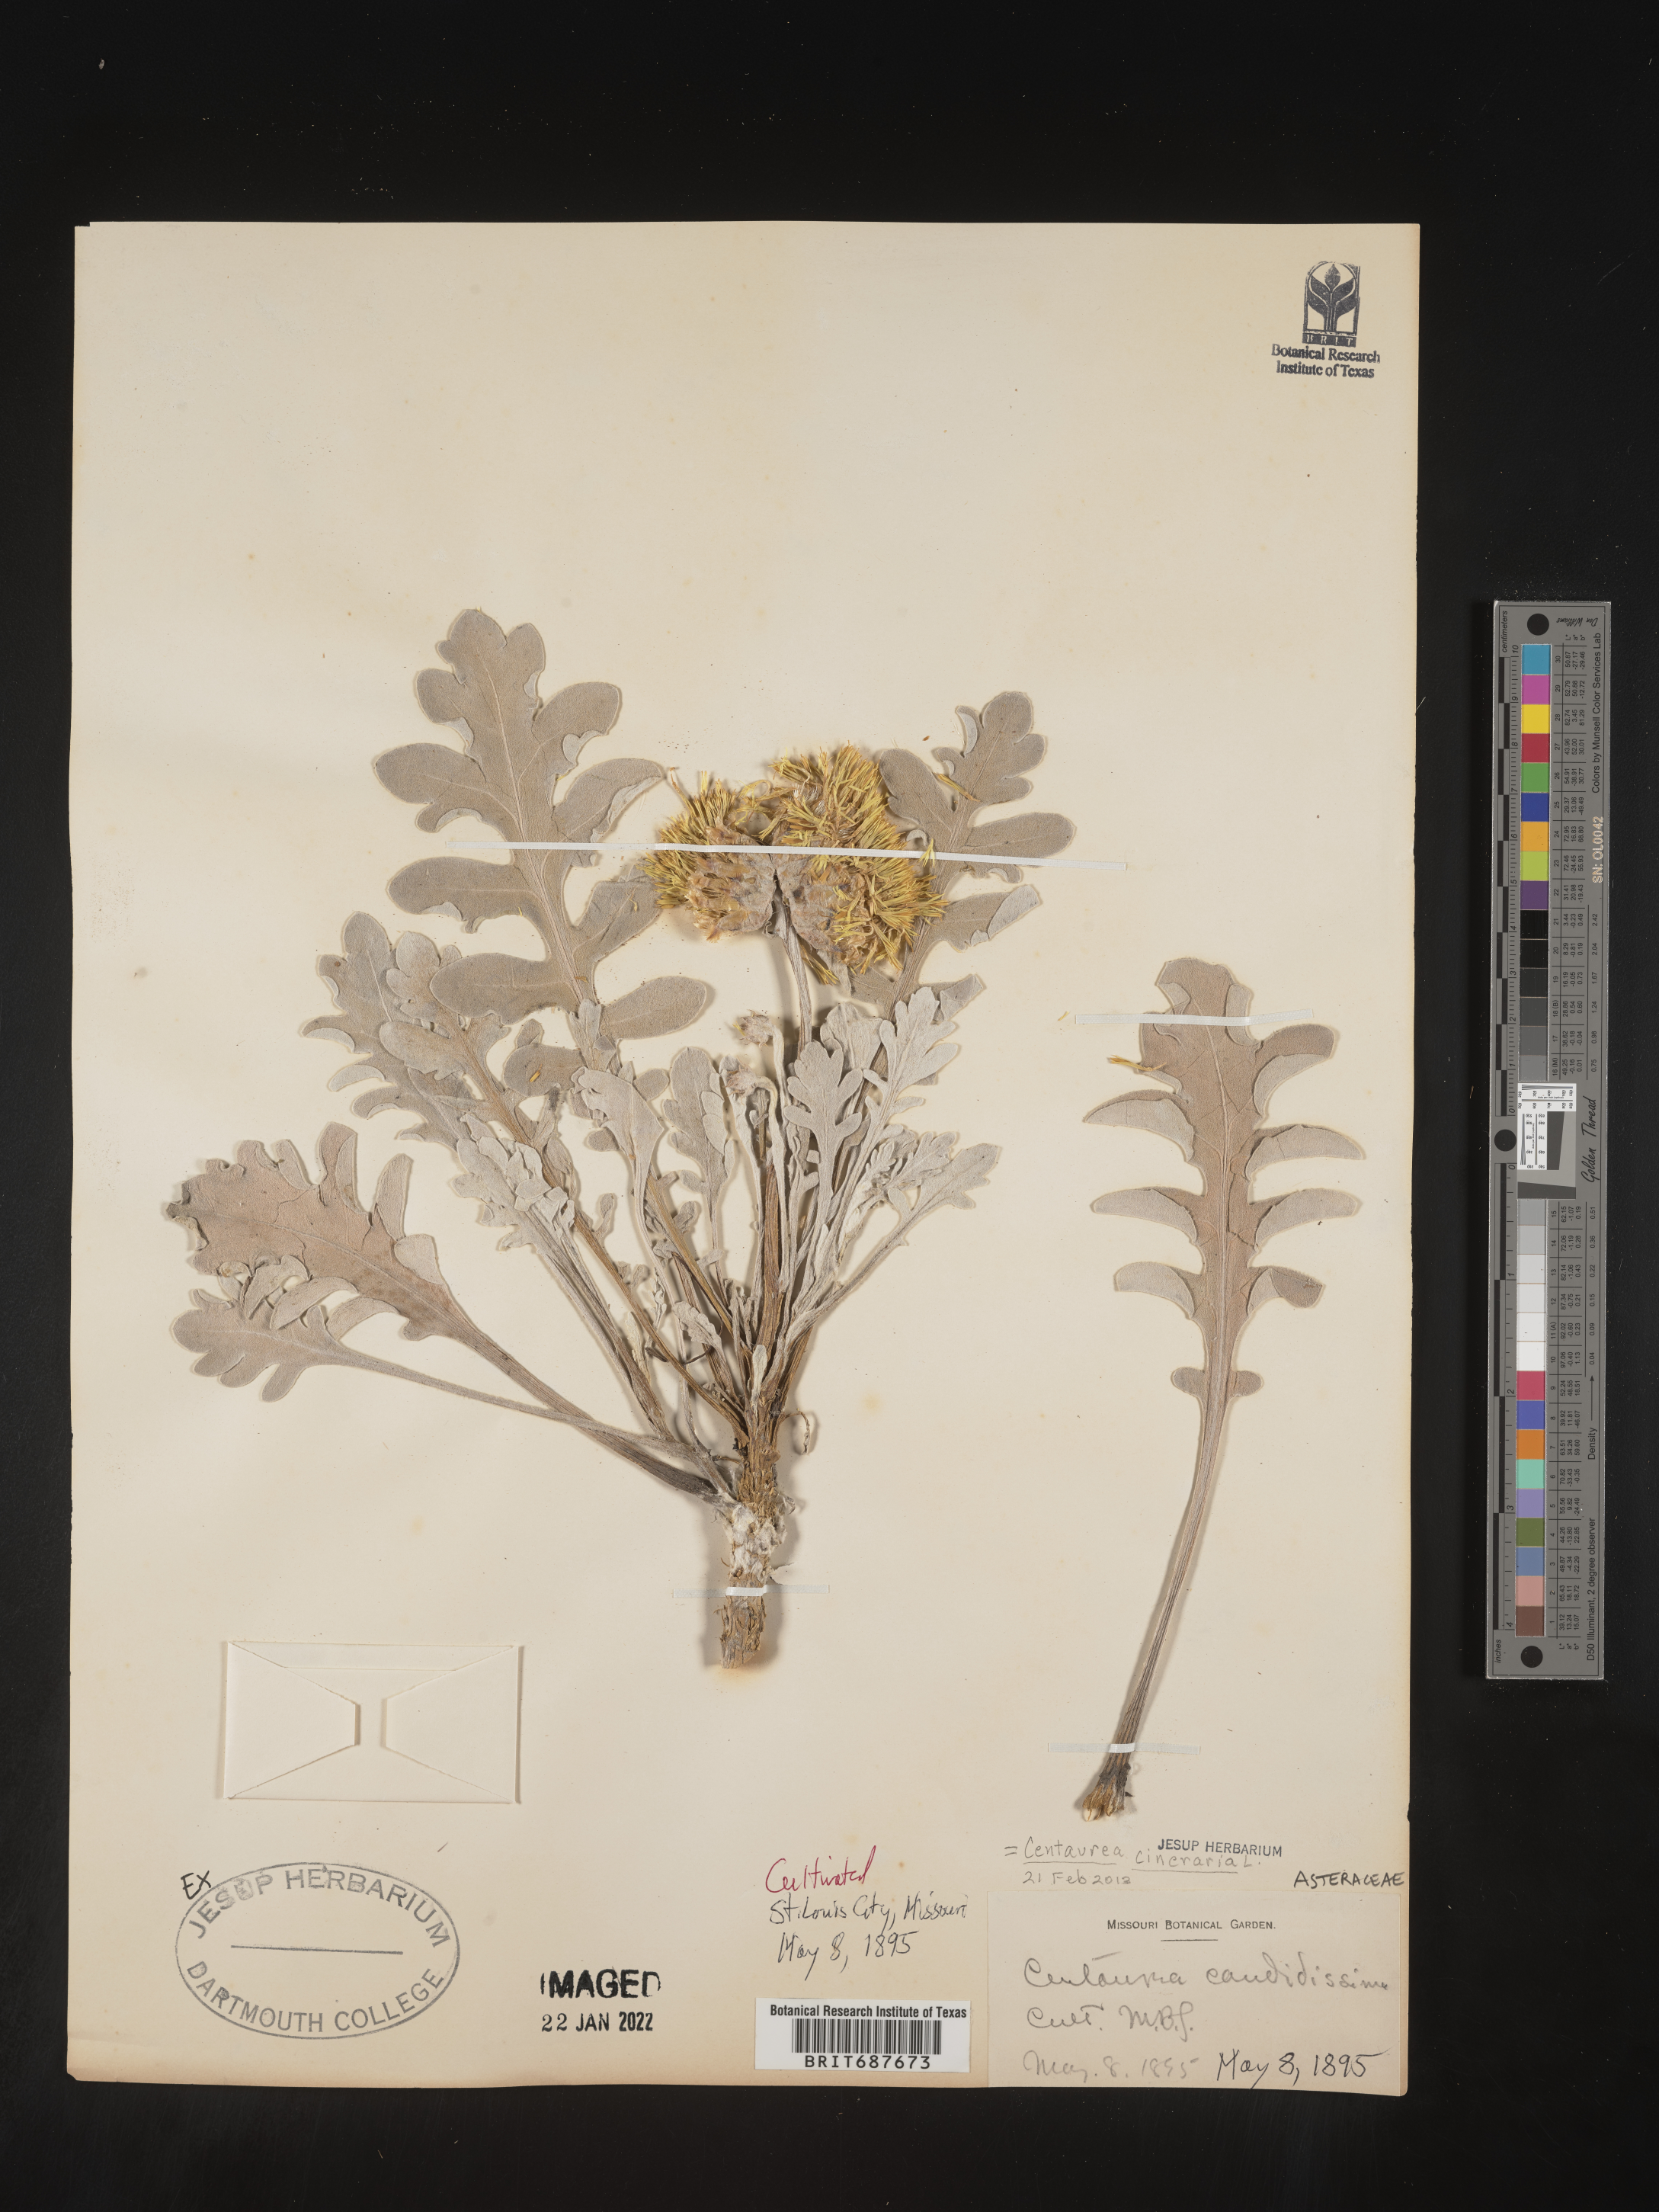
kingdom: Plantae
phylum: Tracheophyta
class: Magnoliopsida
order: Asterales
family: Asteraceae
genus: Centaurea
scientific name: Centaurea
